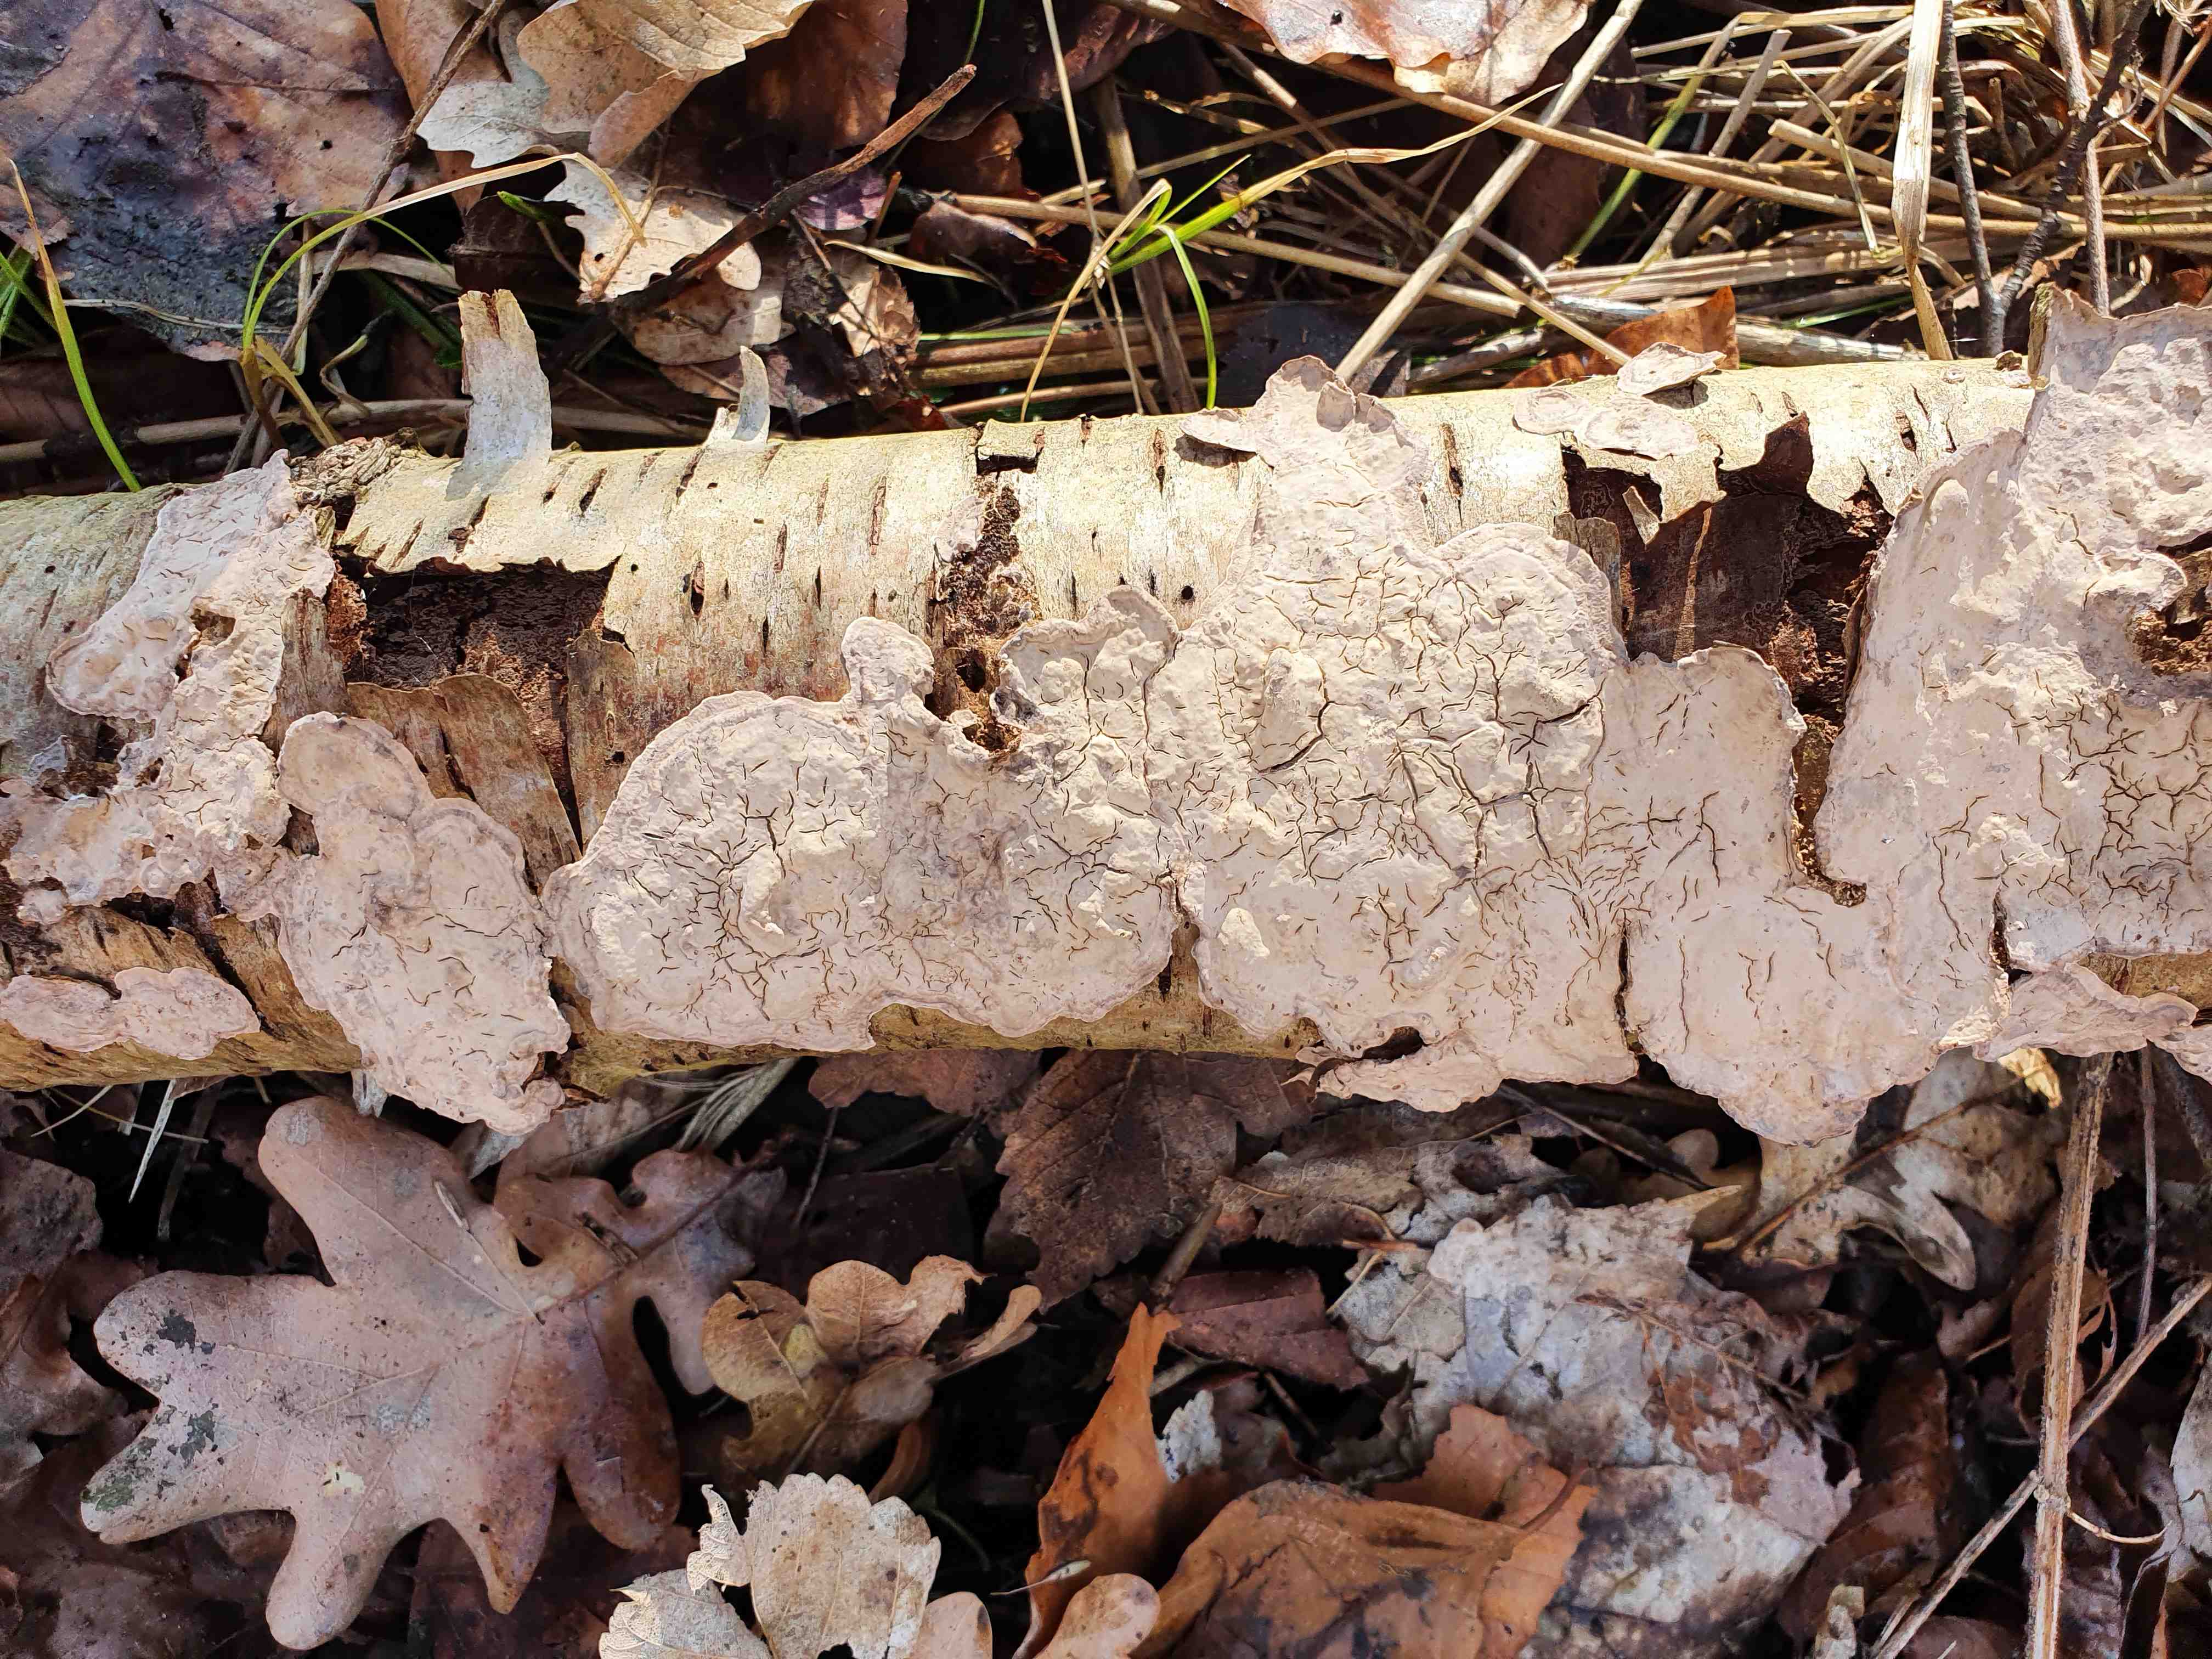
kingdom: Fungi
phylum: Basidiomycota
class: Agaricomycetes
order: Agaricales
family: Physalacriaceae
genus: Cylindrobasidium
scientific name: Cylindrobasidium evolvens
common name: sprækkehinde
